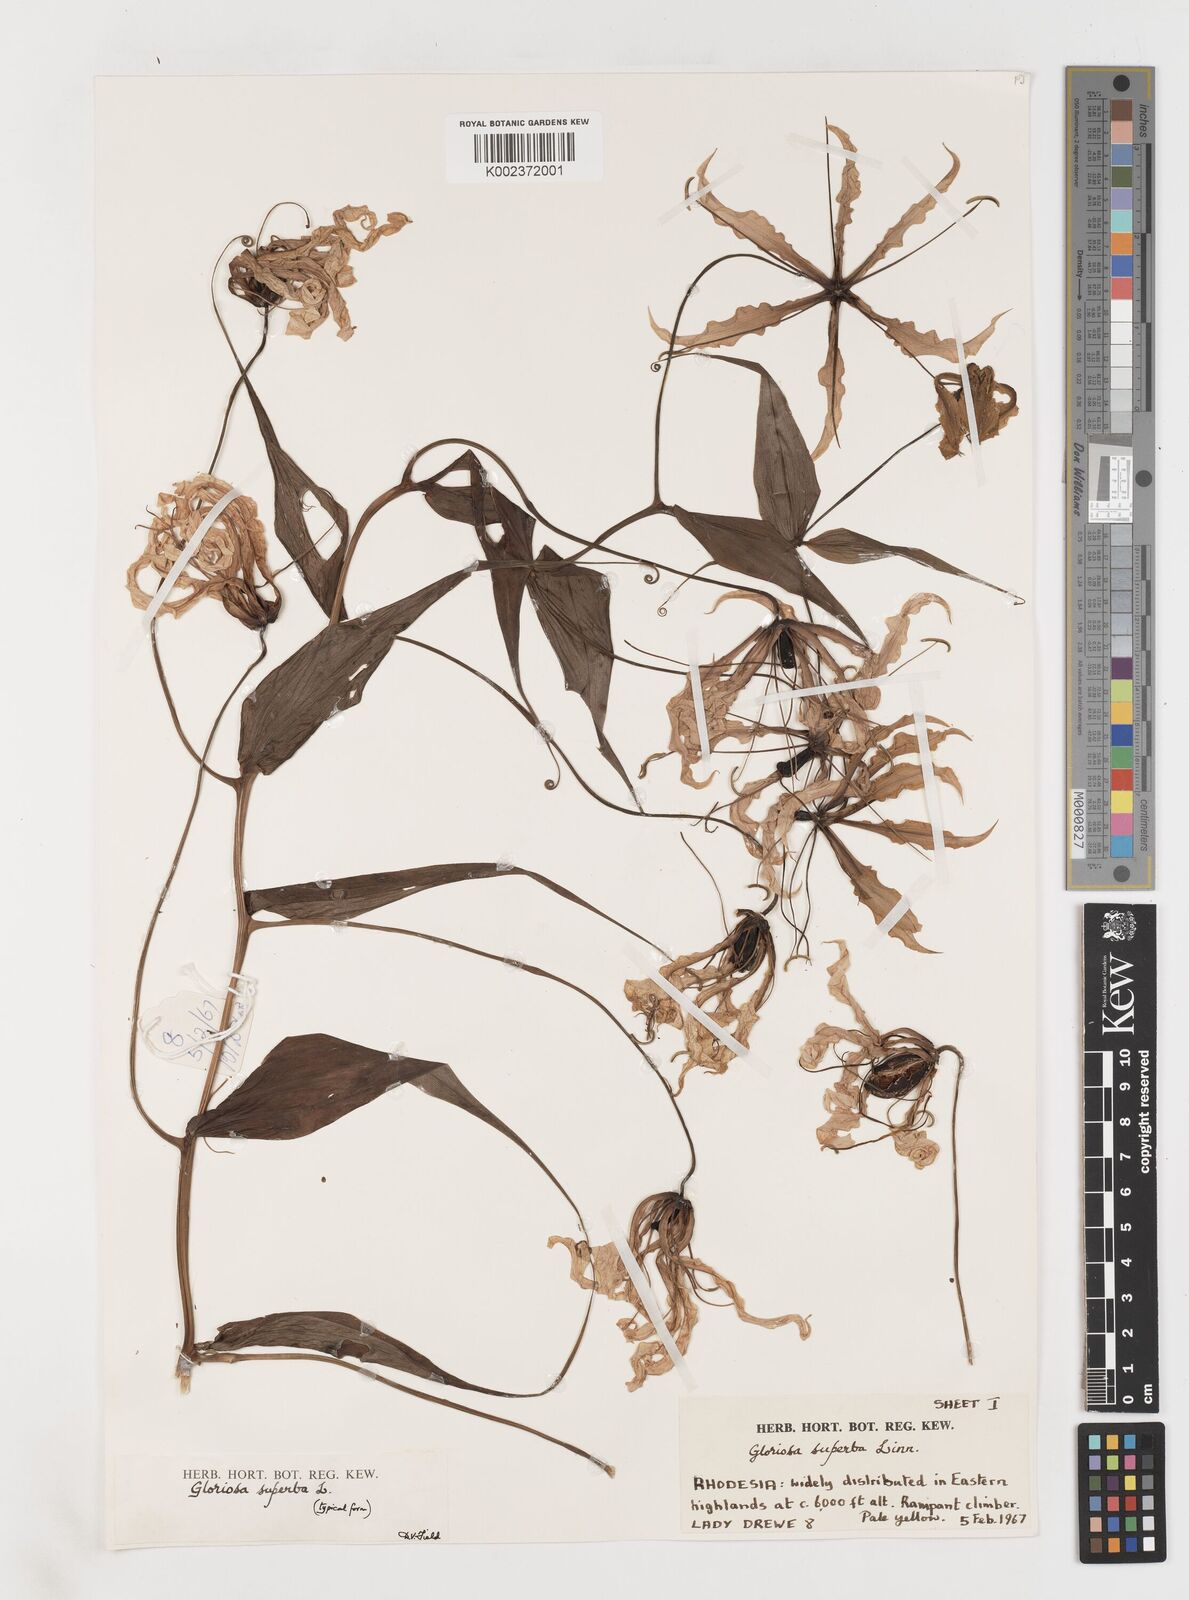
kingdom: Plantae
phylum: Tracheophyta
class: Liliopsida
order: Liliales
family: Colchicaceae
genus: Gloriosa
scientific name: Gloriosa superba
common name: Flame lily
